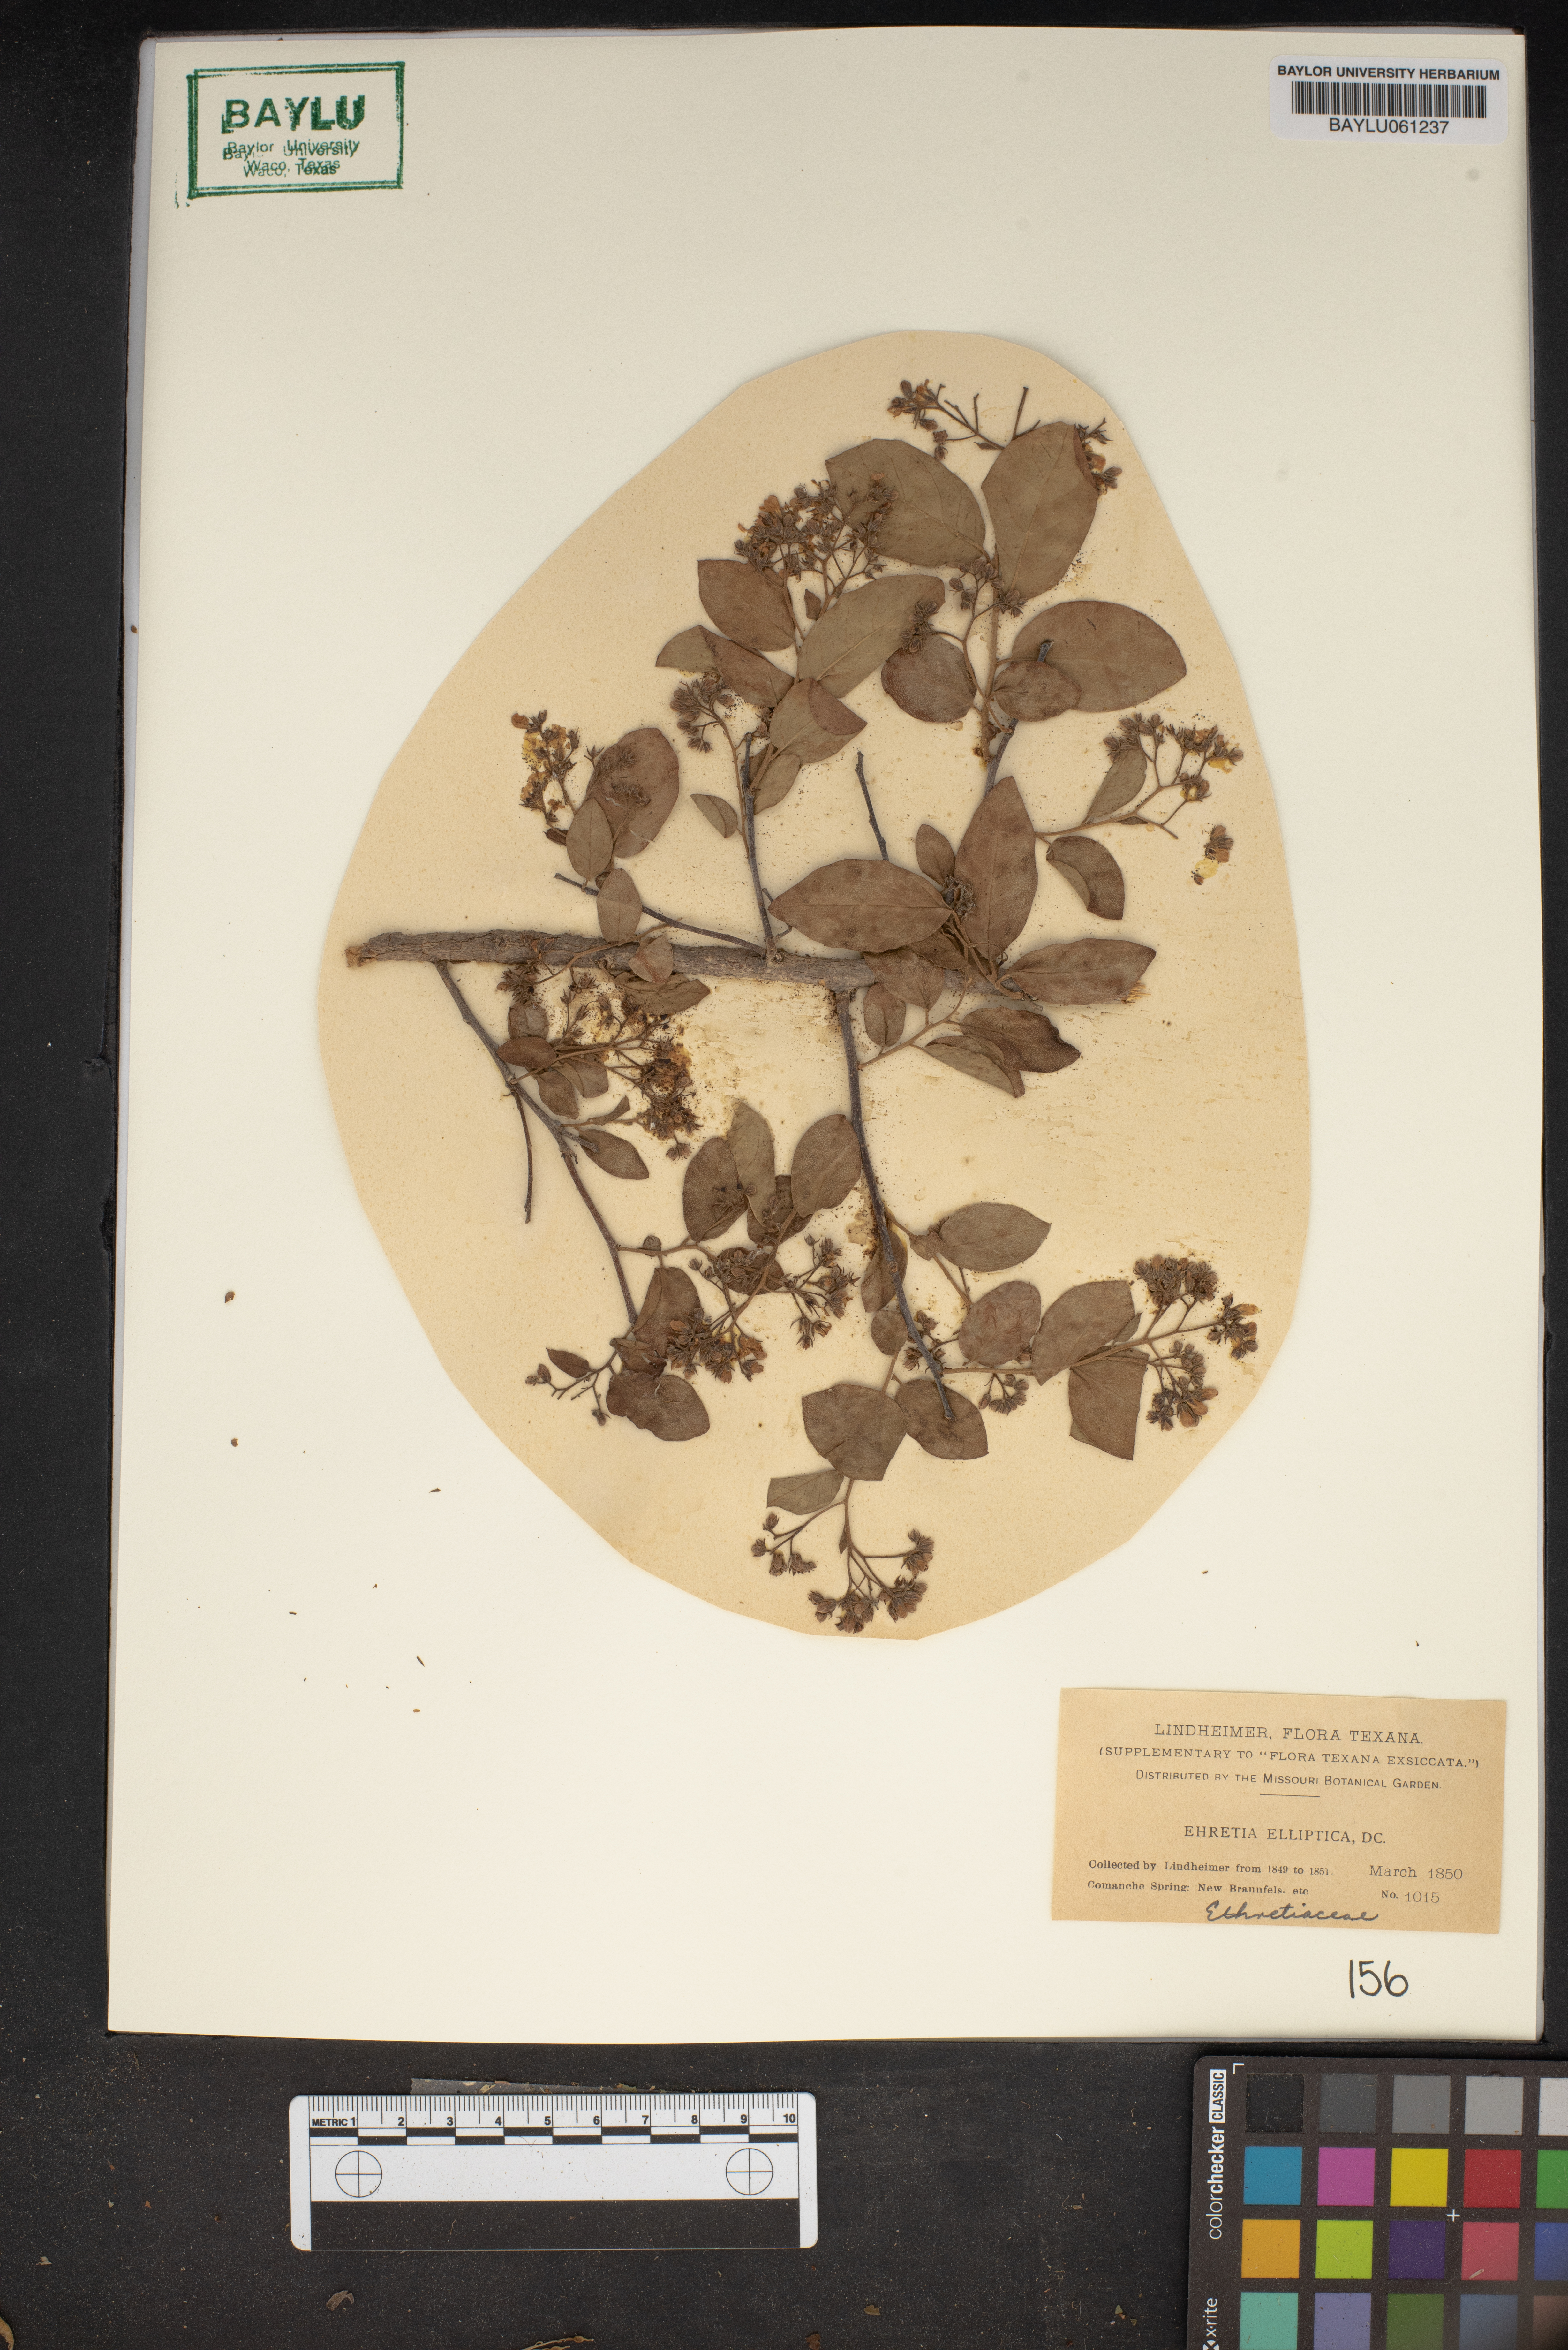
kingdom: Plantae
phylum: Tracheophyta
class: Magnoliopsida
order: Boraginales
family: Ehretiaceae
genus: Ehretia
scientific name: Ehretia anacua
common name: Sugarberry
